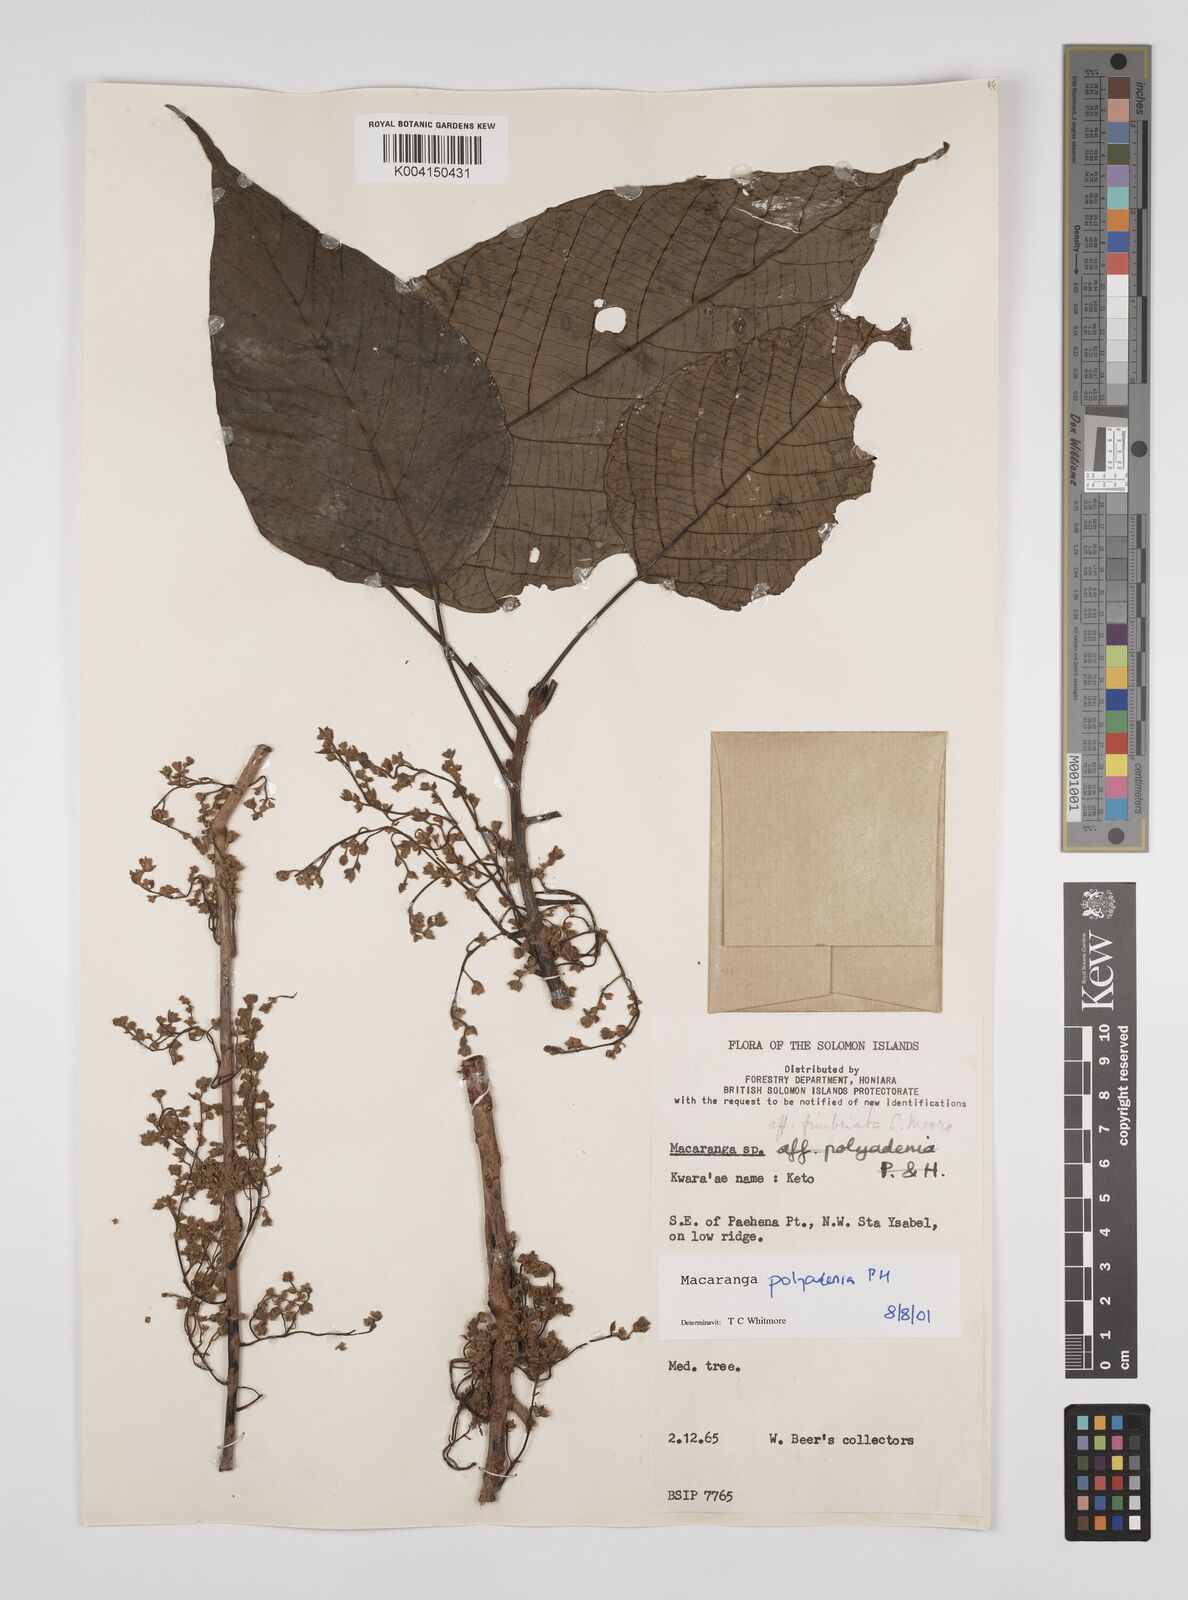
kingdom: Plantae
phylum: Tracheophyta
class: Magnoliopsida
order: Malpighiales
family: Euphorbiaceae
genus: Macaranga
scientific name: Macaranga polyadenia
